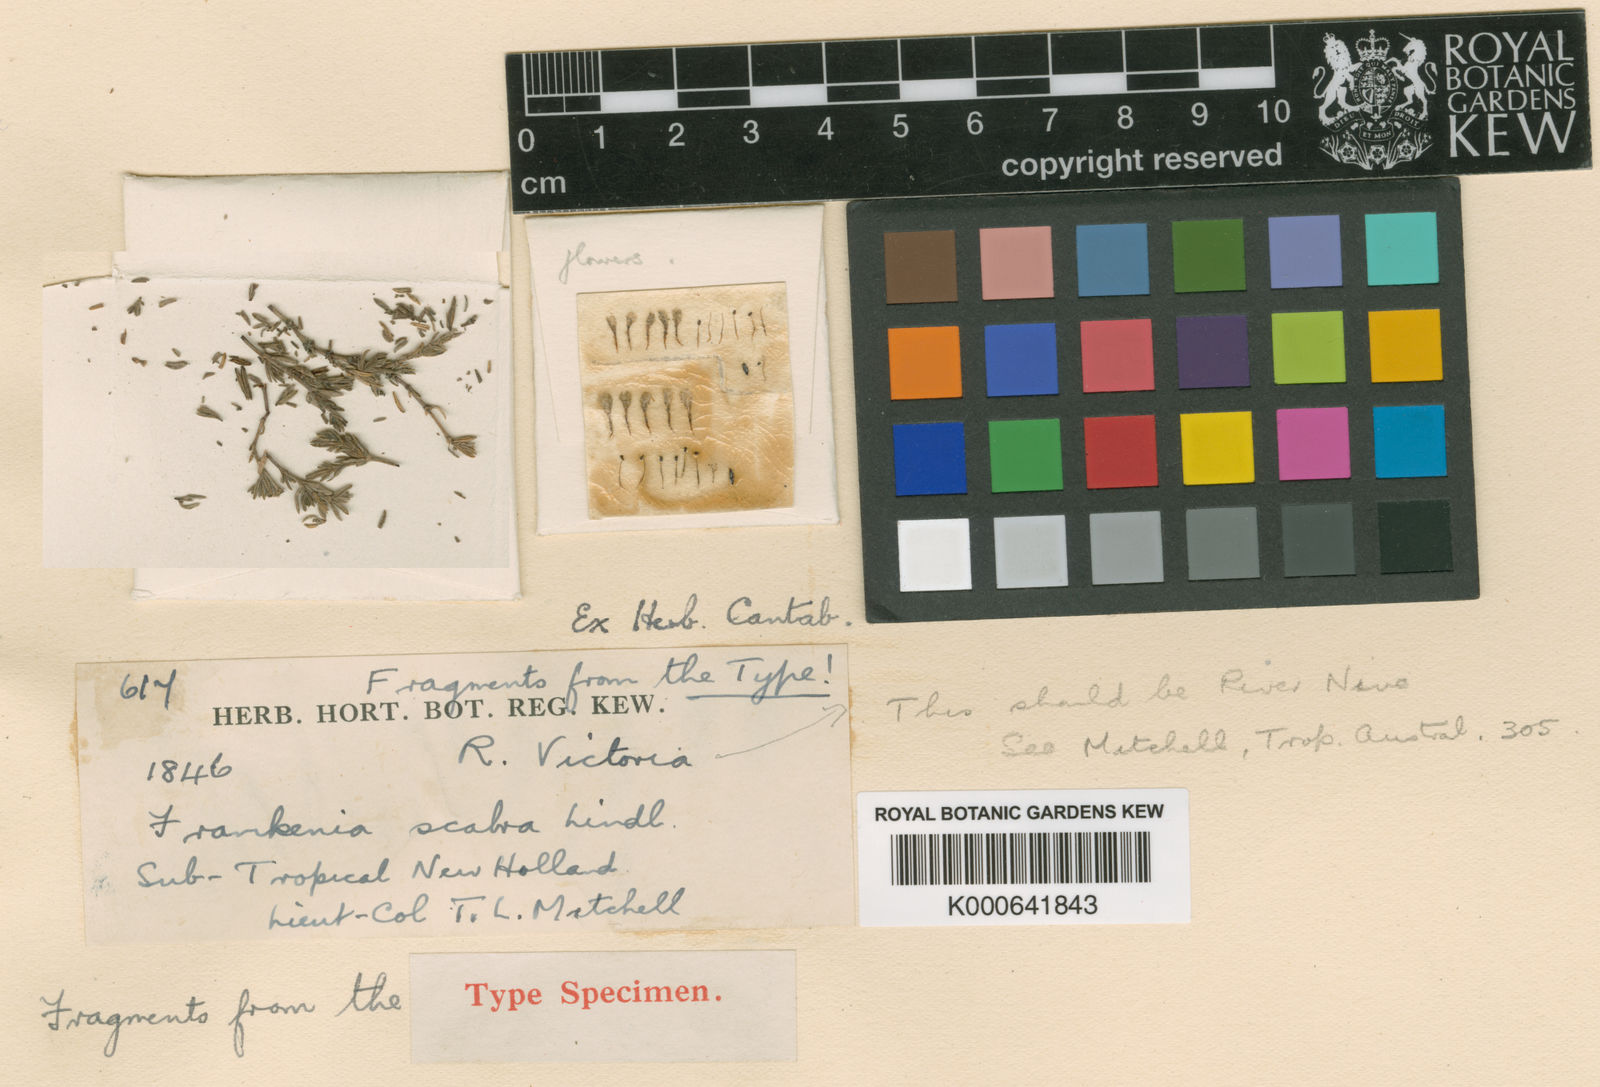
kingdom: Plantae
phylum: Tracheophyta
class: Magnoliopsida
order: Caryophyllales
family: Frankeniaceae
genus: Frankenia
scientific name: Frankenia scabra
